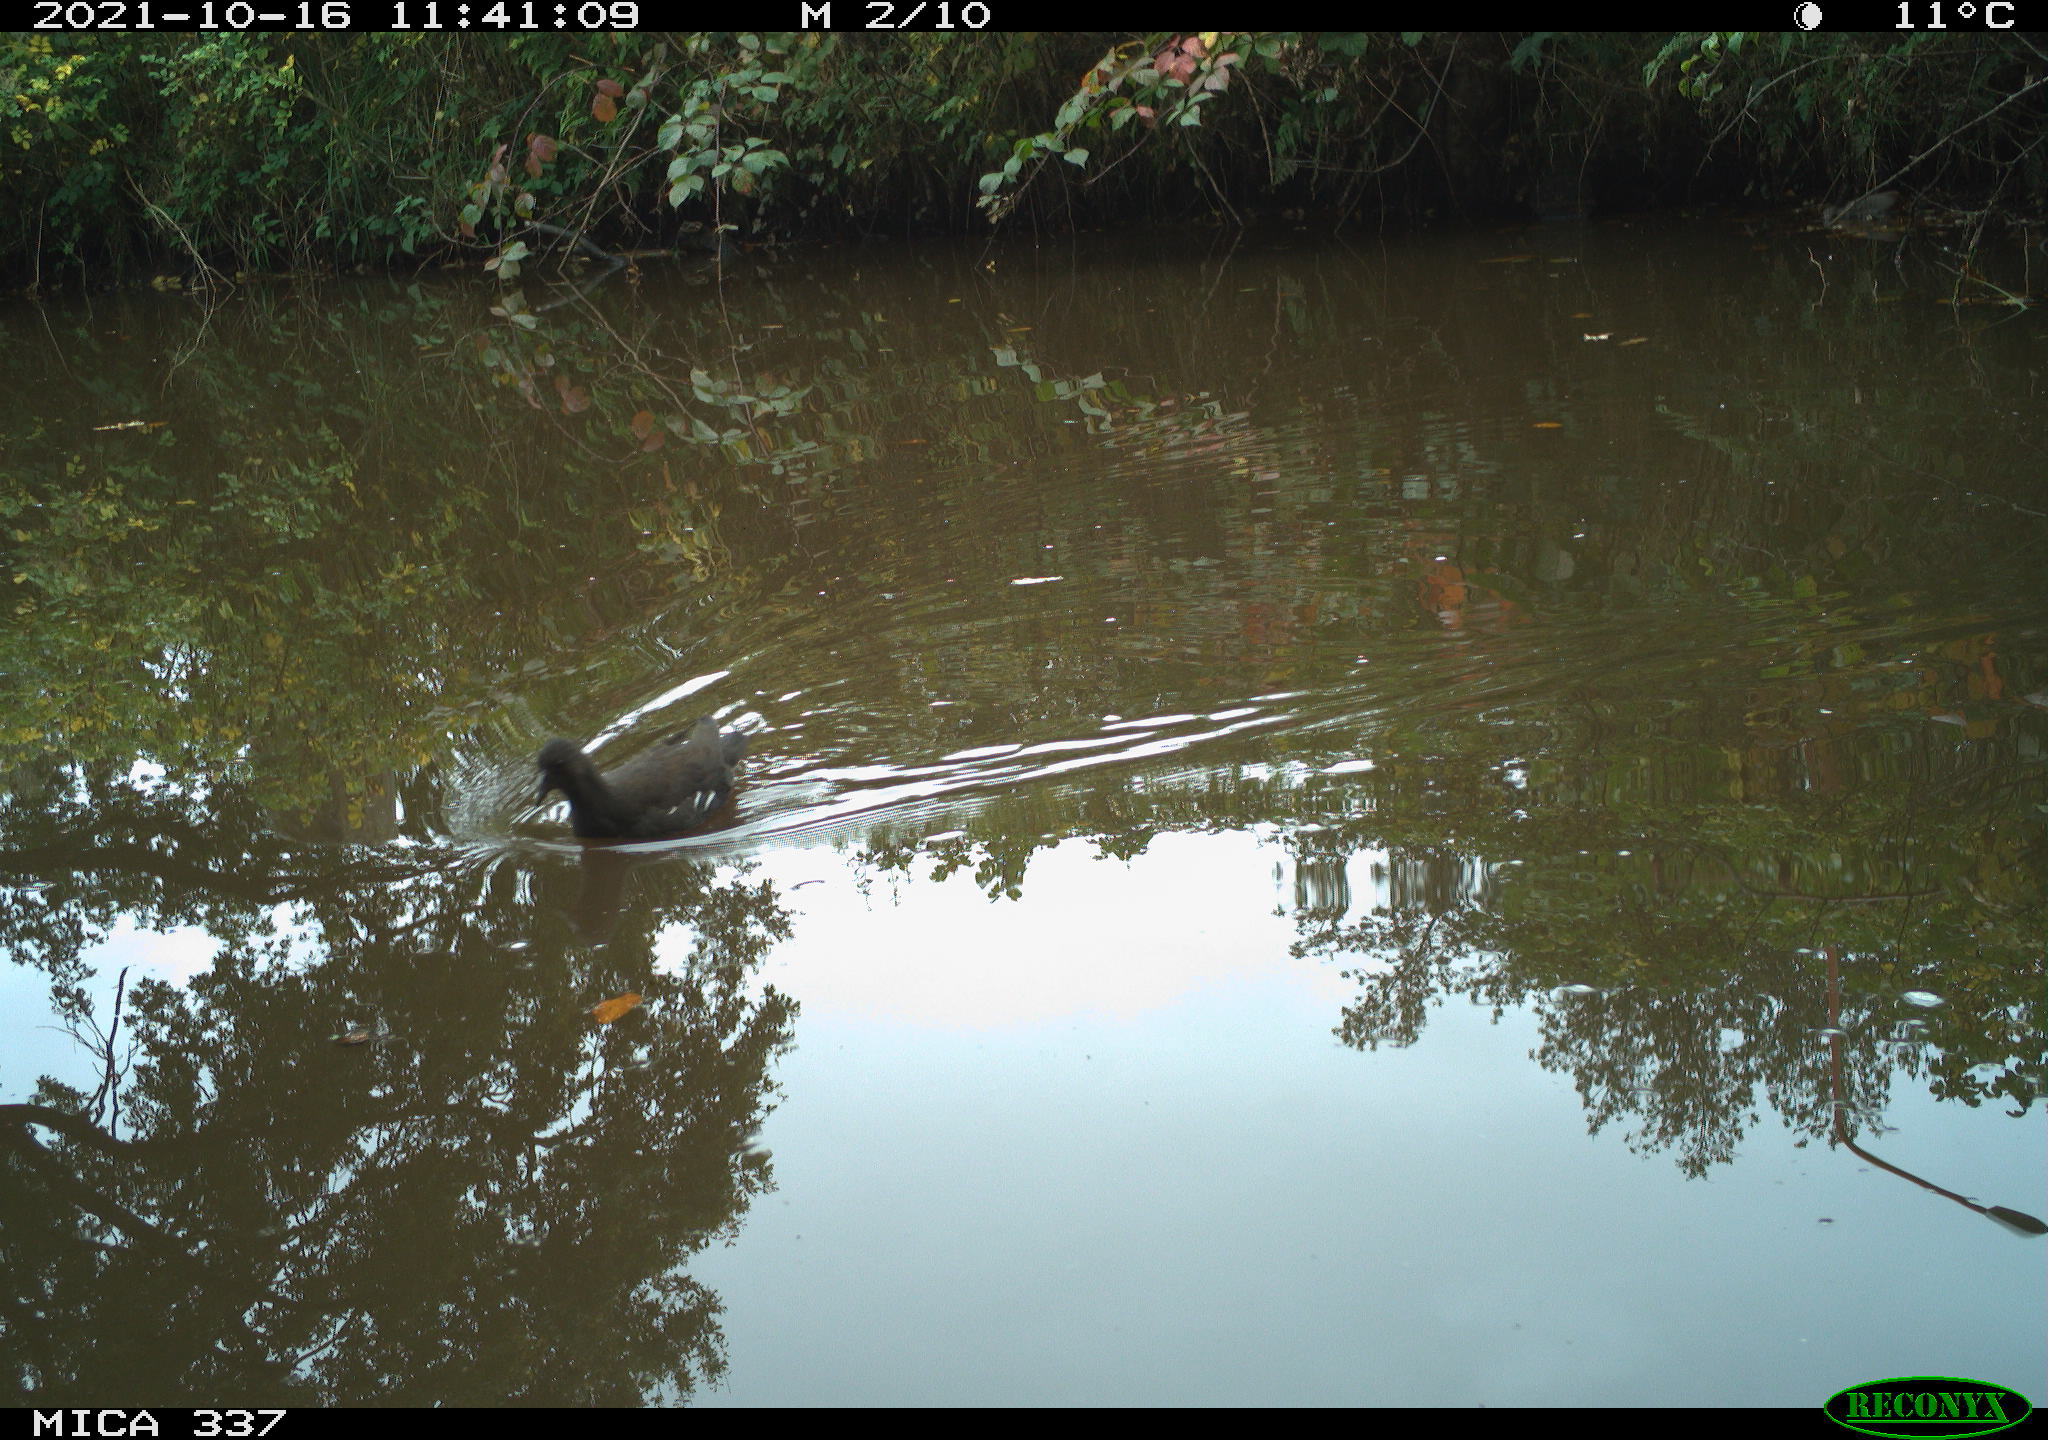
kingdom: Animalia
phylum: Chordata
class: Aves
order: Gruiformes
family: Rallidae
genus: Gallinula
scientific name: Gallinula chloropus
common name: Common moorhen
